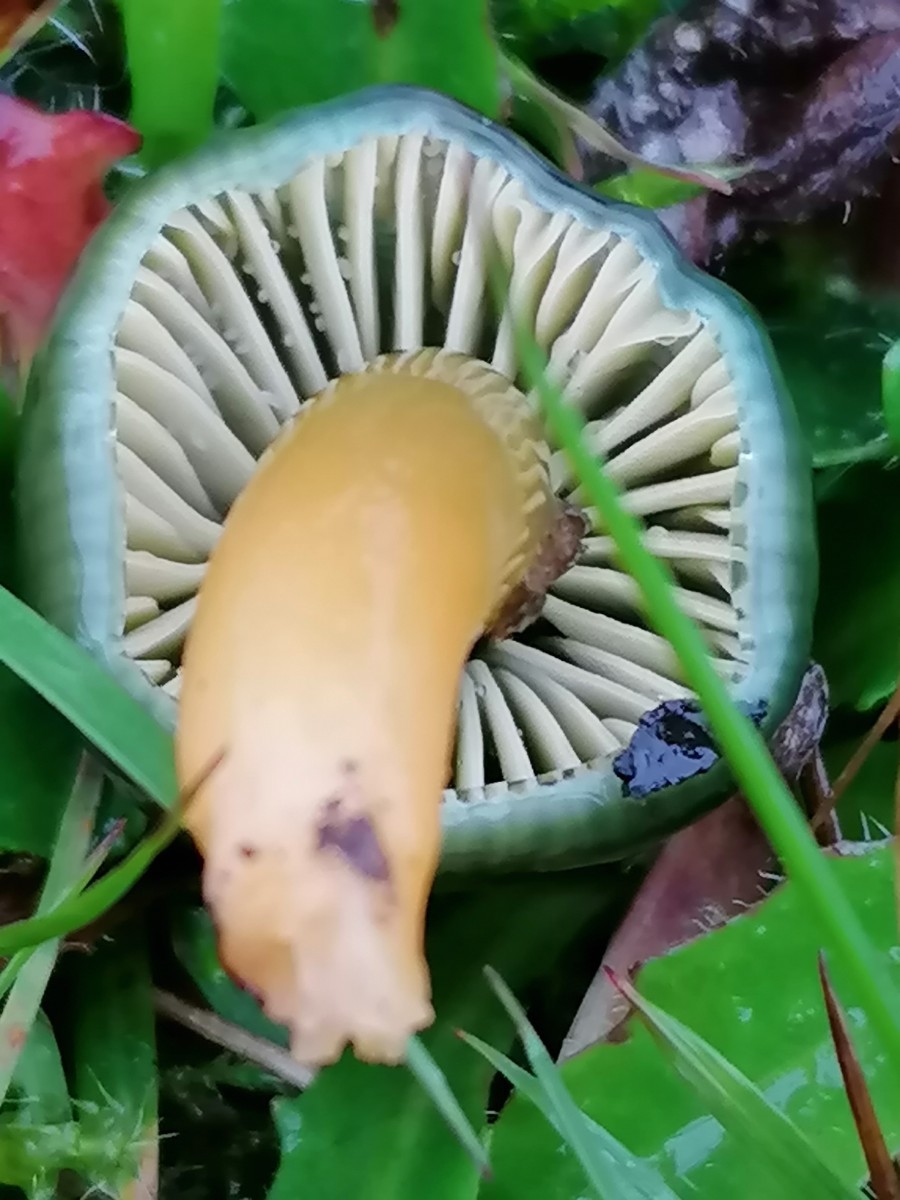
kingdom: Fungi
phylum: Basidiomycota
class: Agaricomycetes
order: Agaricales
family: Hygrophoraceae
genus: Gliophorus
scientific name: Gliophorus psittacinus
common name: papegøje-vokshat
